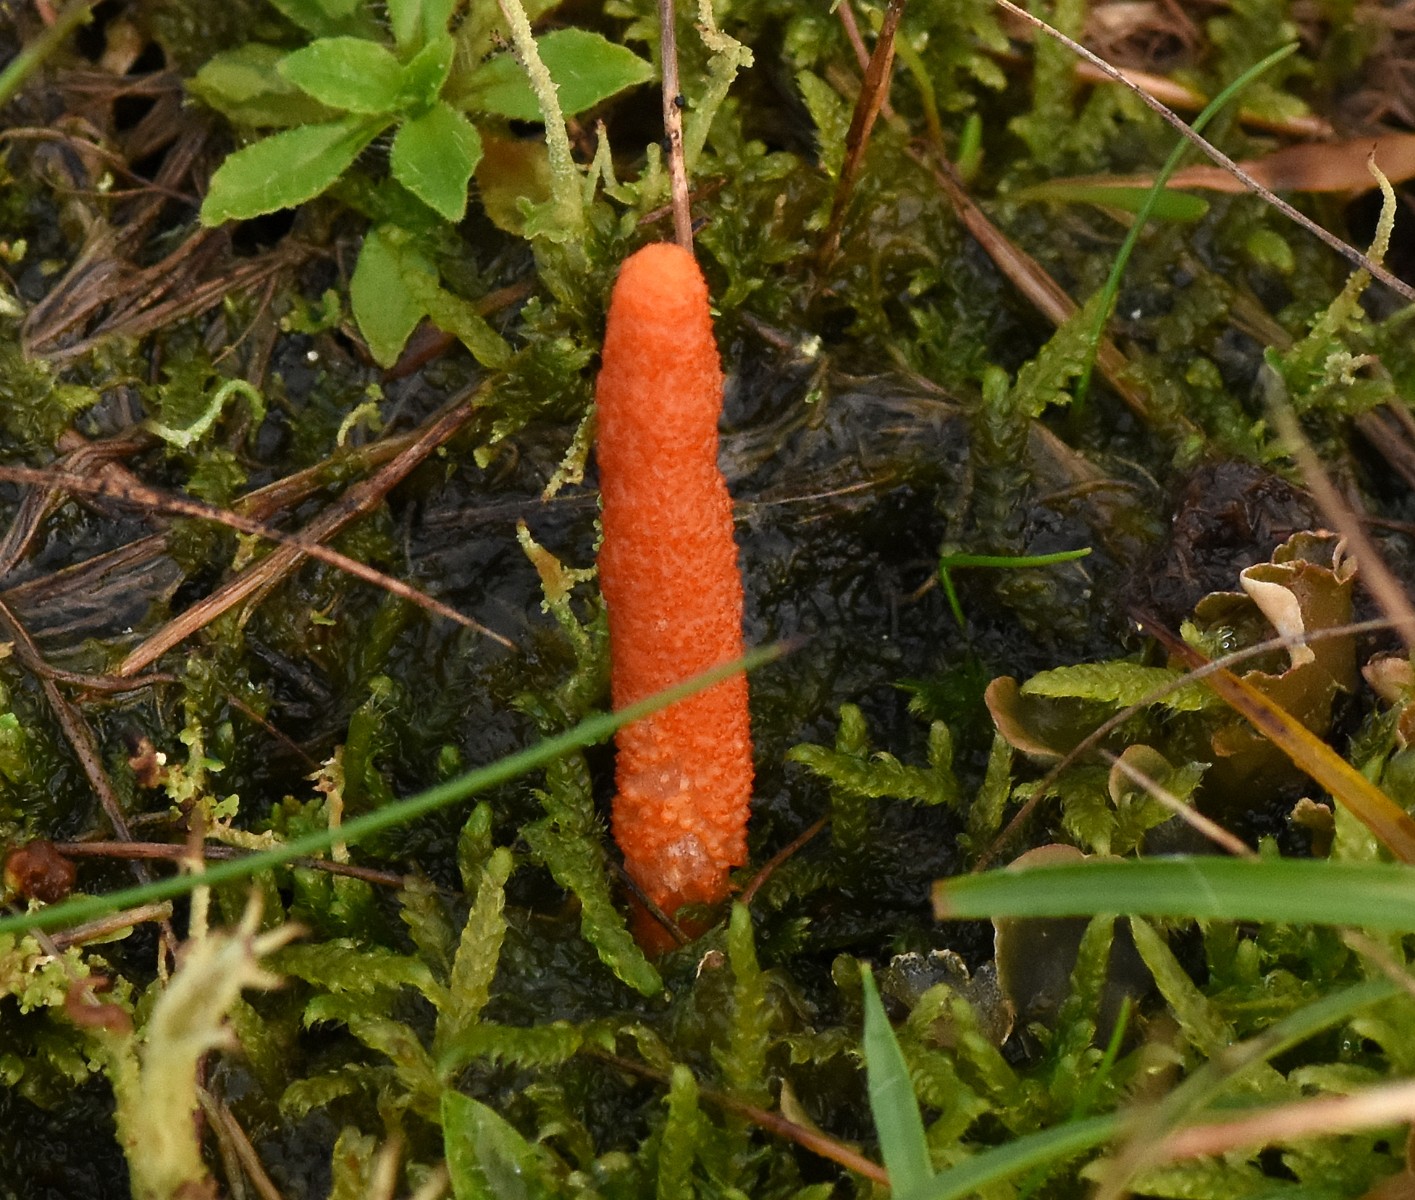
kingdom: Fungi
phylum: Ascomycota
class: Sordariomycetes
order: Hypocreales
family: Cordycipitaceae
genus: Cordyceps
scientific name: Cordyceps militaris
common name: puppe-snyltekølle
